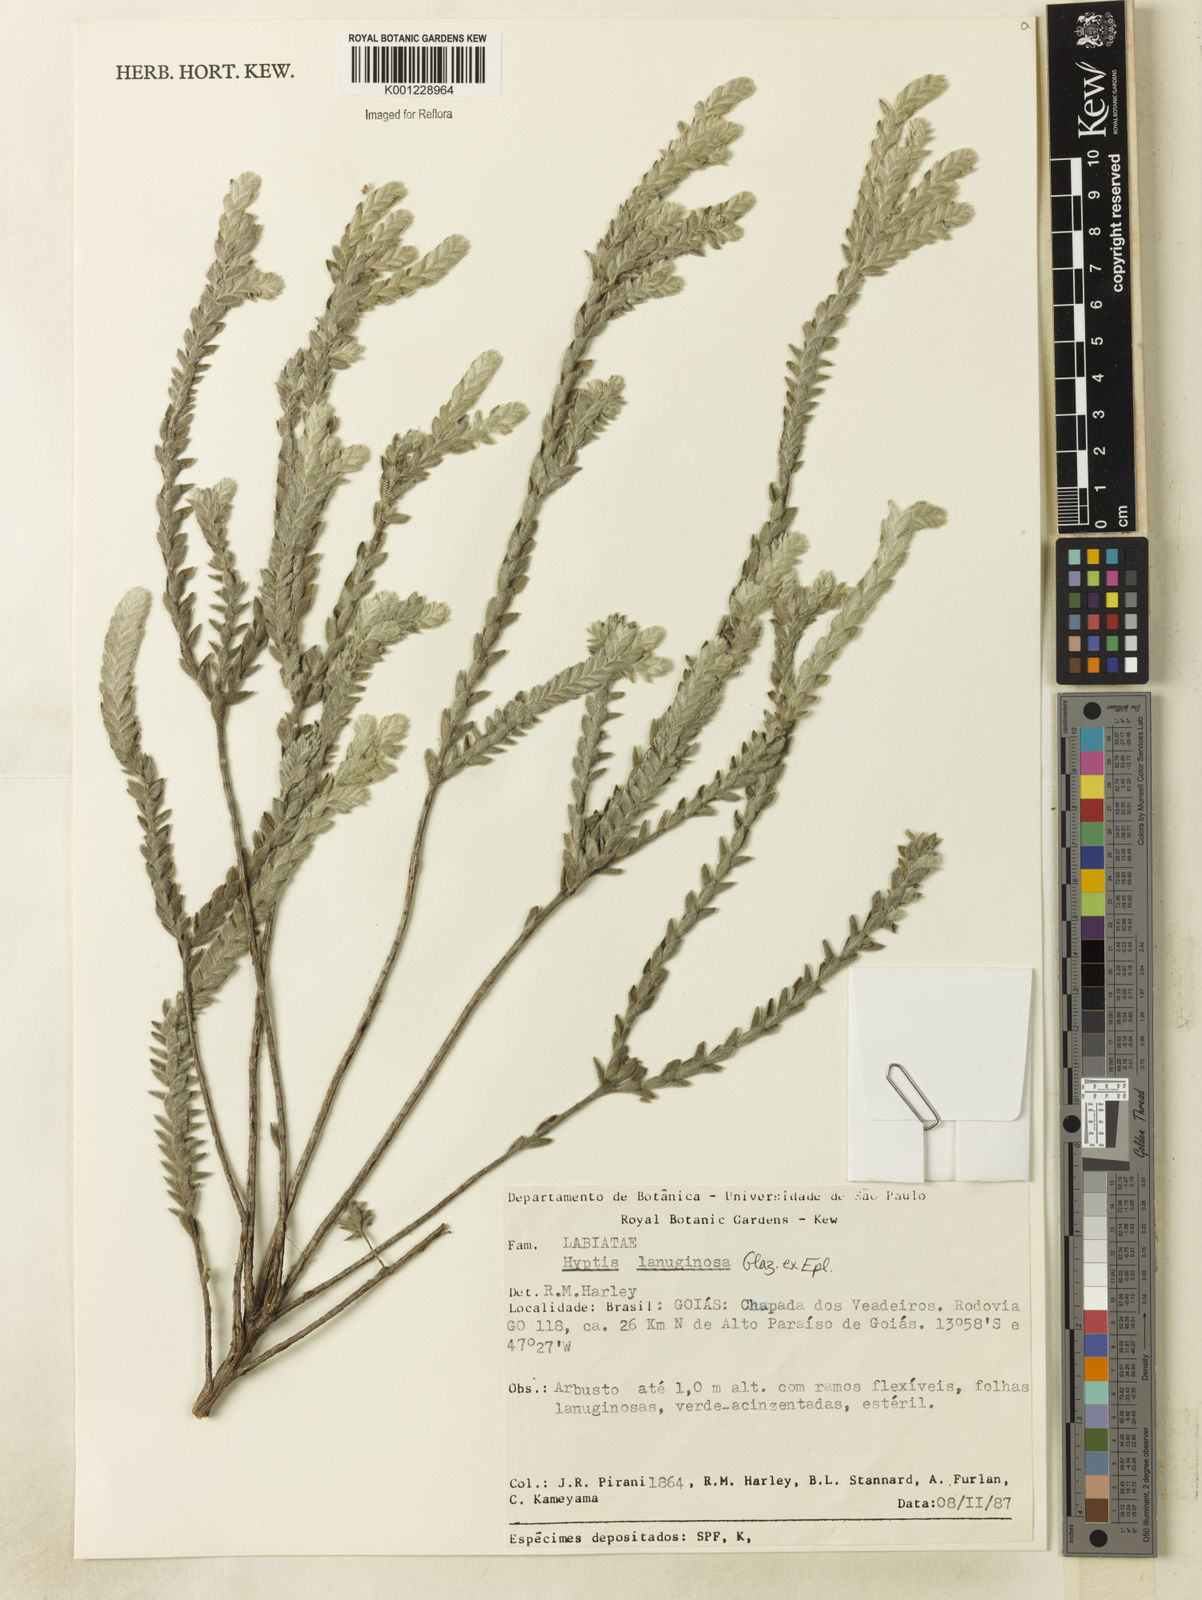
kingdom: Plantae
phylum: Tracheophyta
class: Magnoliopsida
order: Lamiales
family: Lamiaceae
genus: Hyptis
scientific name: Hyptis lanuginosa
